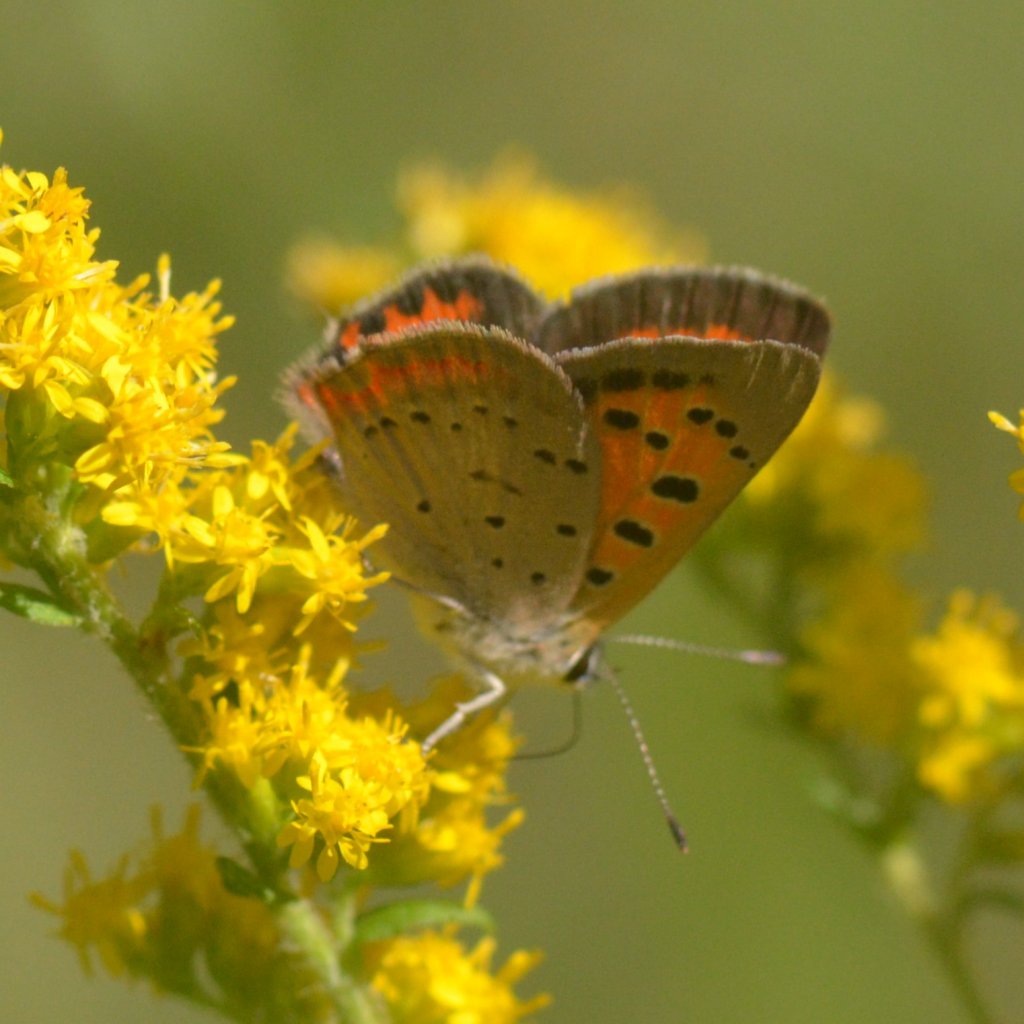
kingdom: Animalia
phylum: Arthropoda
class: Insecta
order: Lepidoptera
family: Lycaenidae
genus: Lycaena
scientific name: Lycaena phlaeas
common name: American Copper
